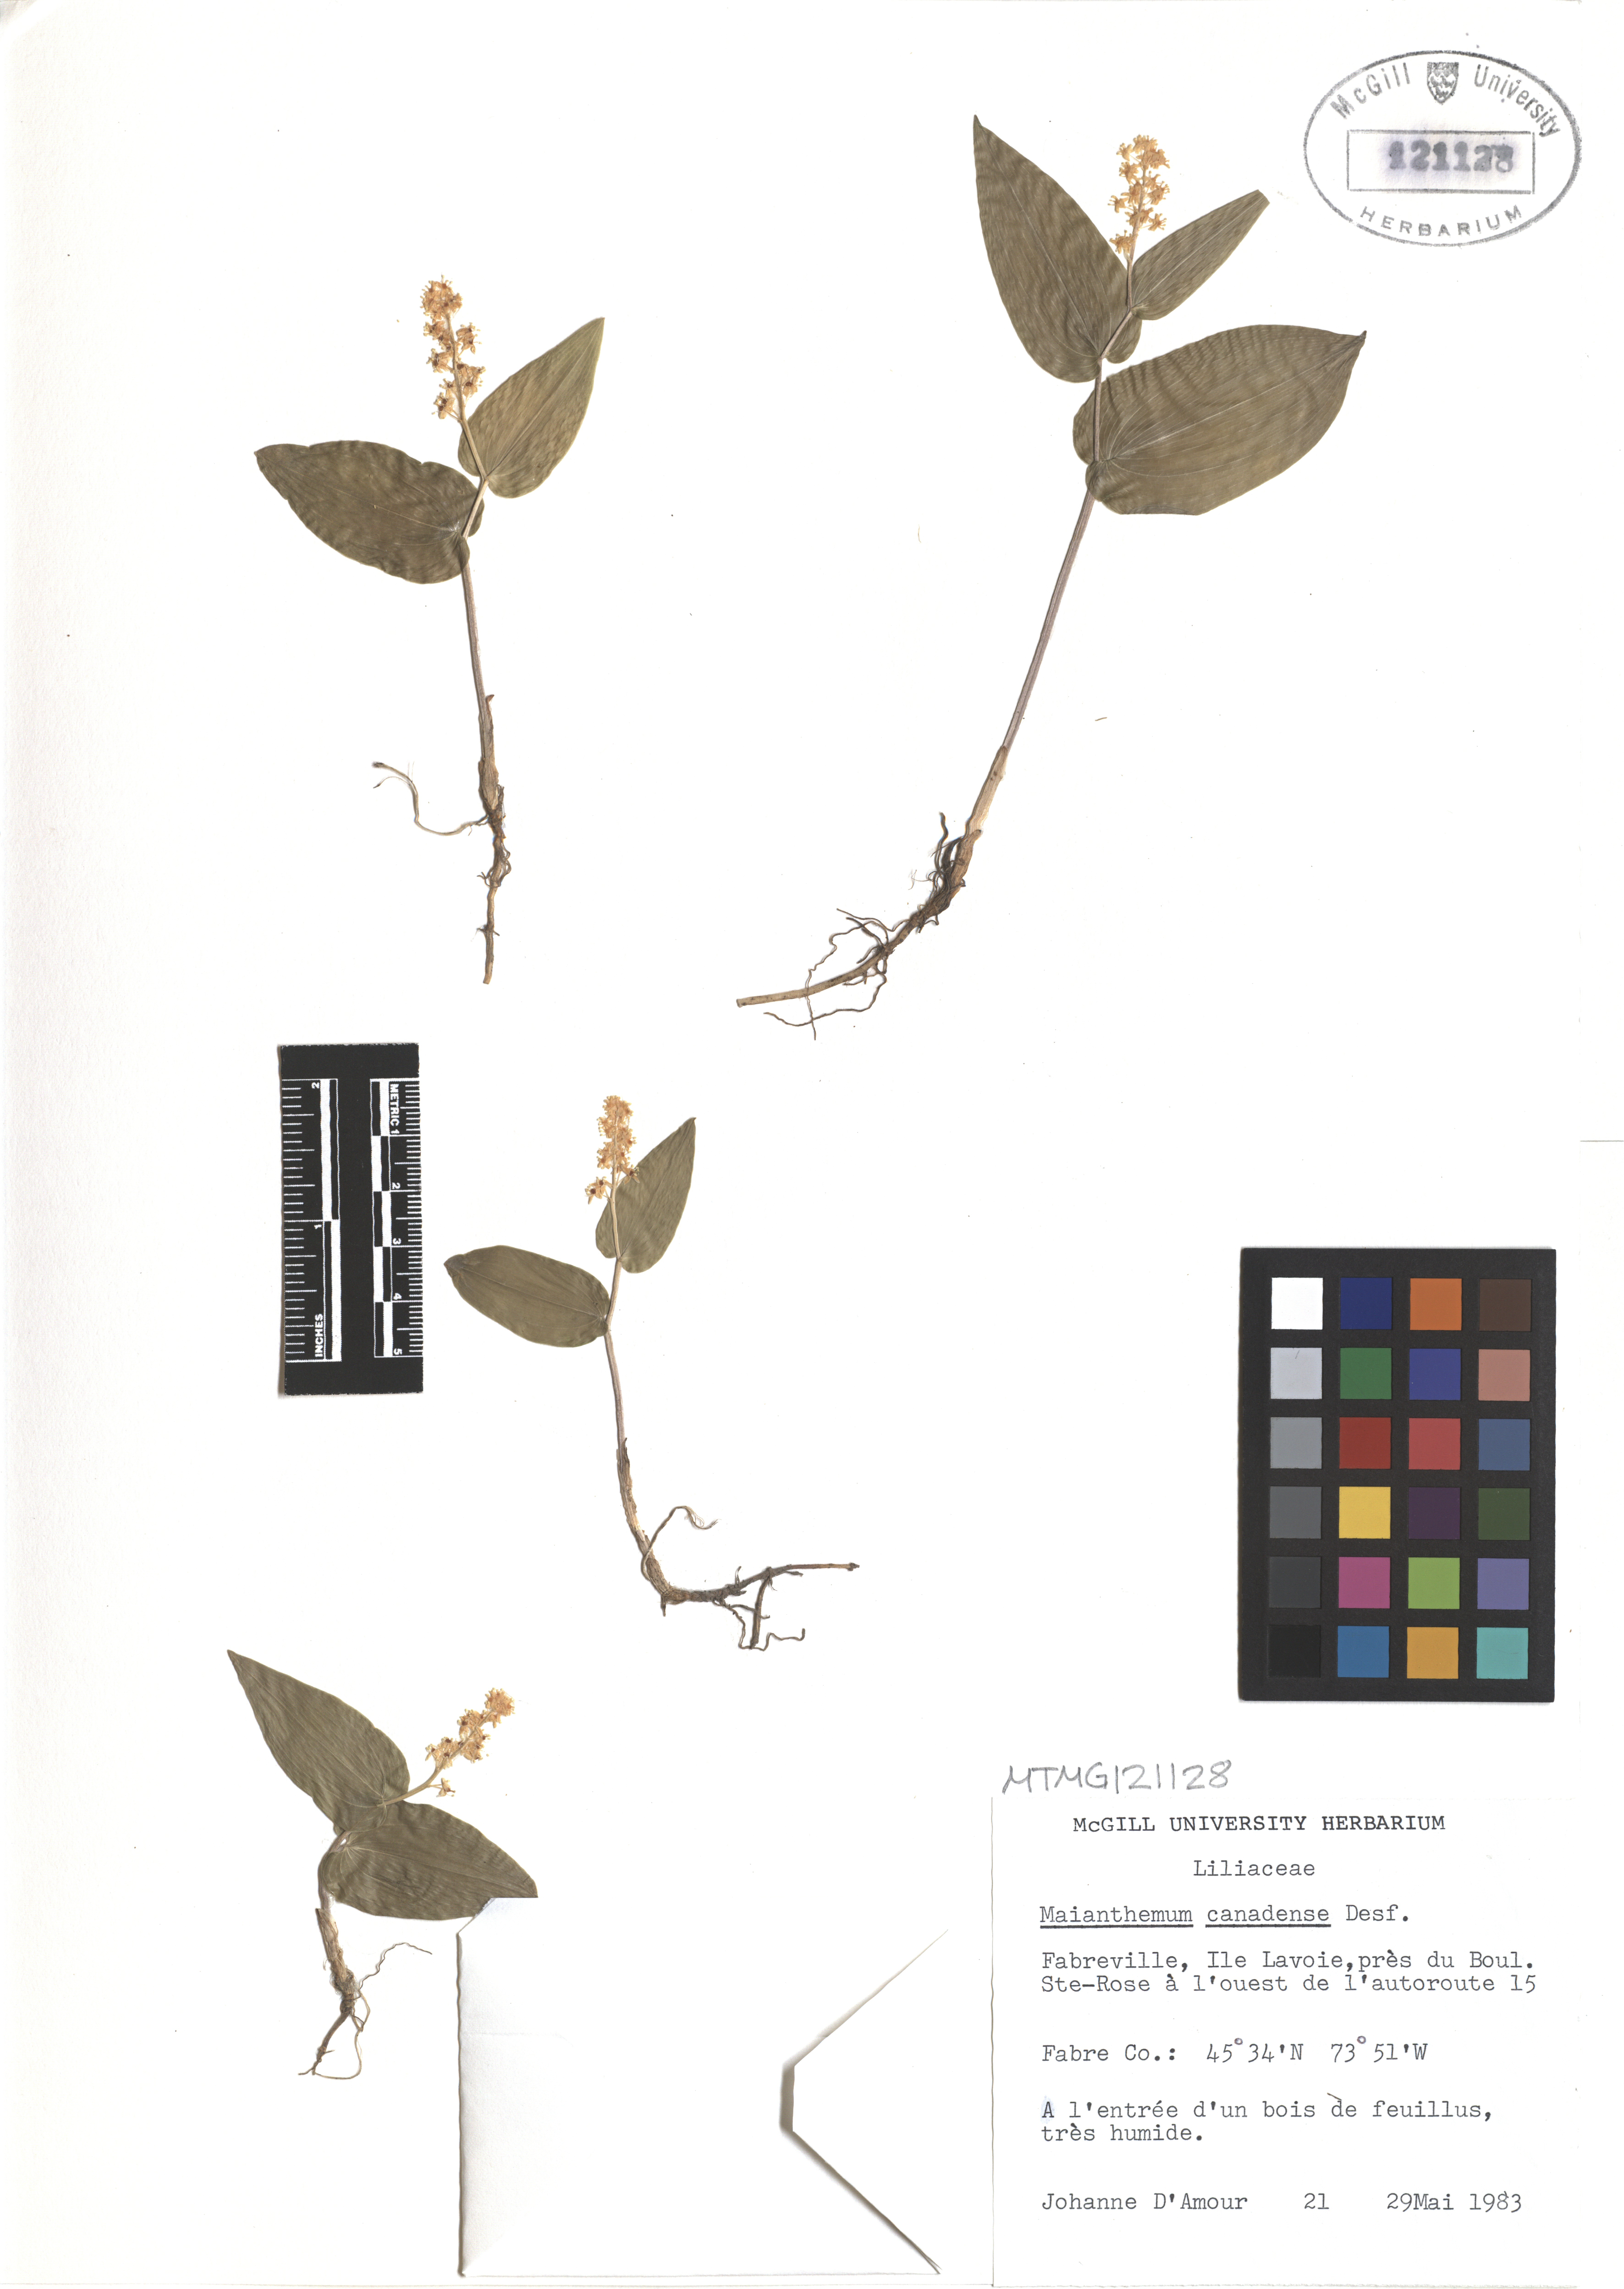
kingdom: Plantae
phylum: Tracheophyta
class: Liliopsida
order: Asparagales
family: Asparagaceae
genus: Maianthemum
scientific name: Maianthemum canadense
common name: False lily-of-the-valley
